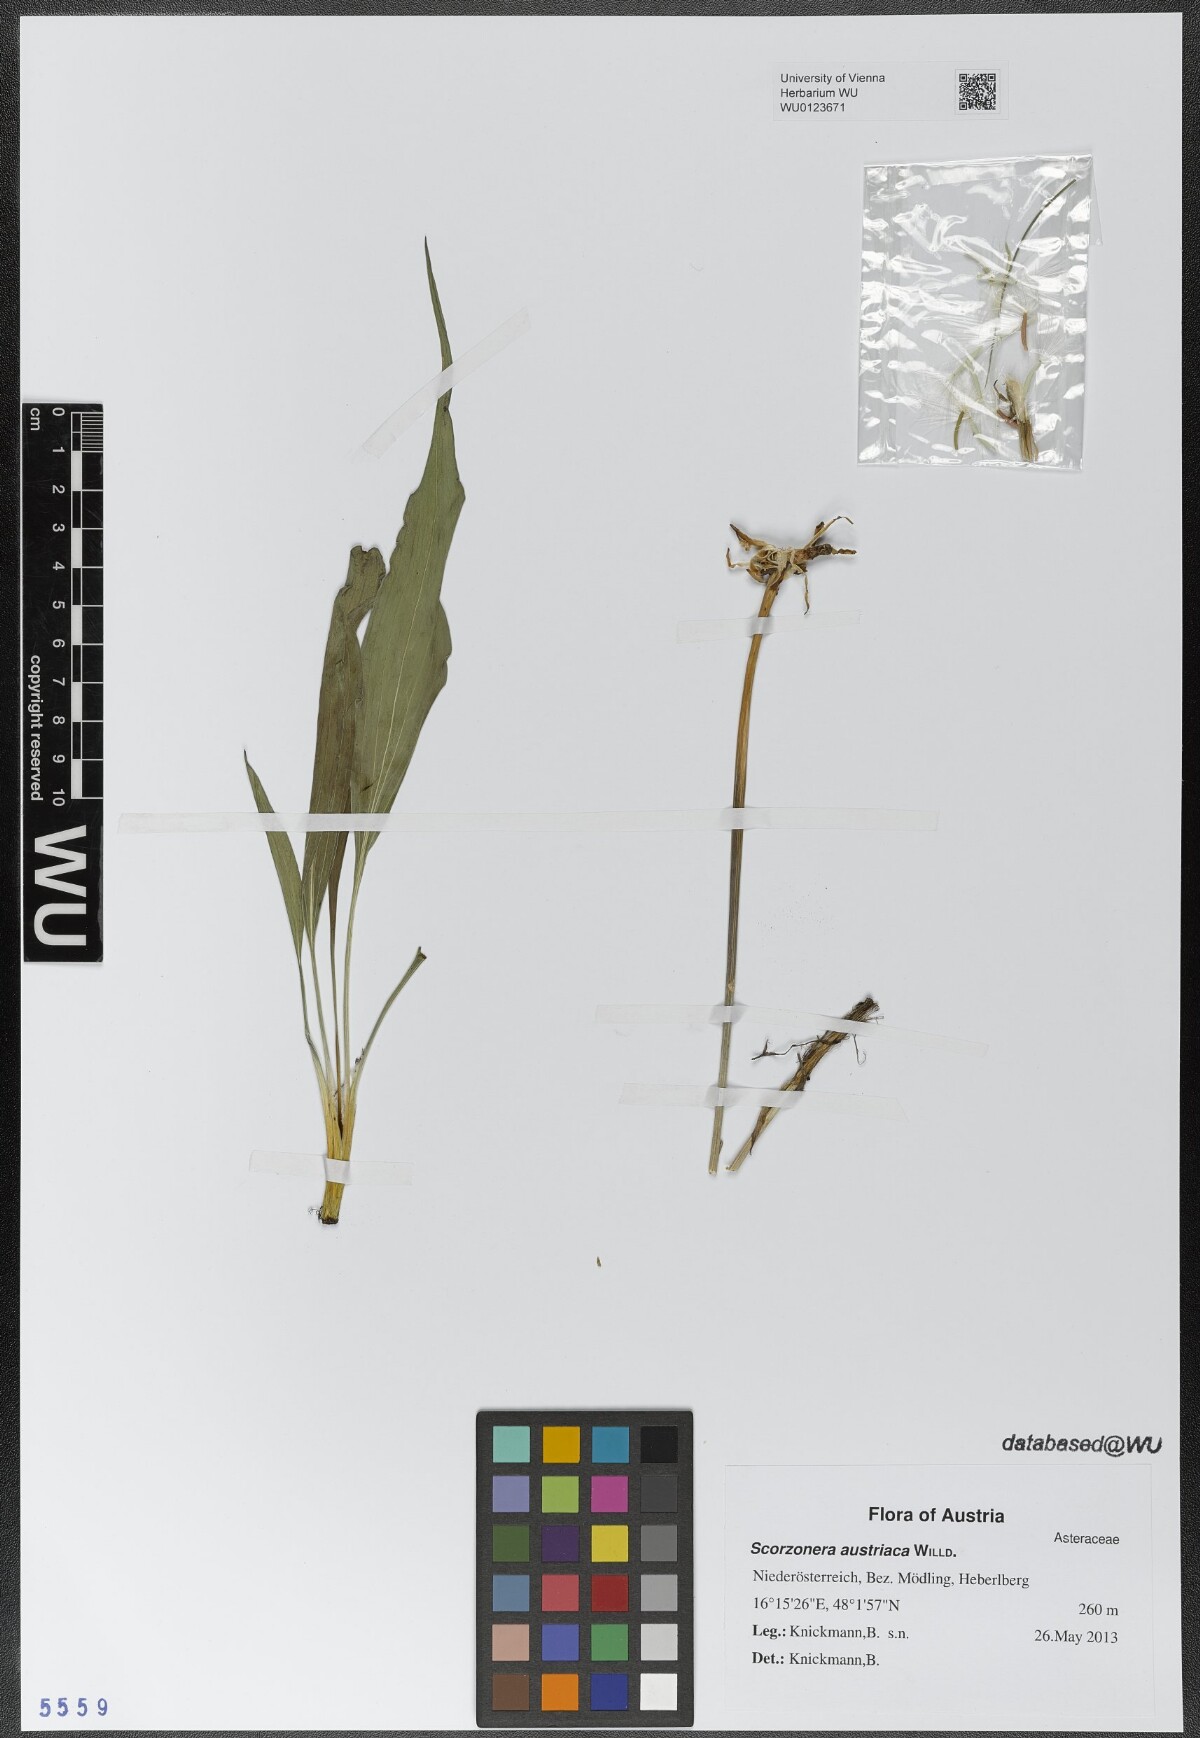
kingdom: Plantae
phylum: Tracheophyta
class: Magnoliopsida
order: Asterales
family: Asteraceae
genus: Takhtajaniantha
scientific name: Takhtajaniantha austriaca
